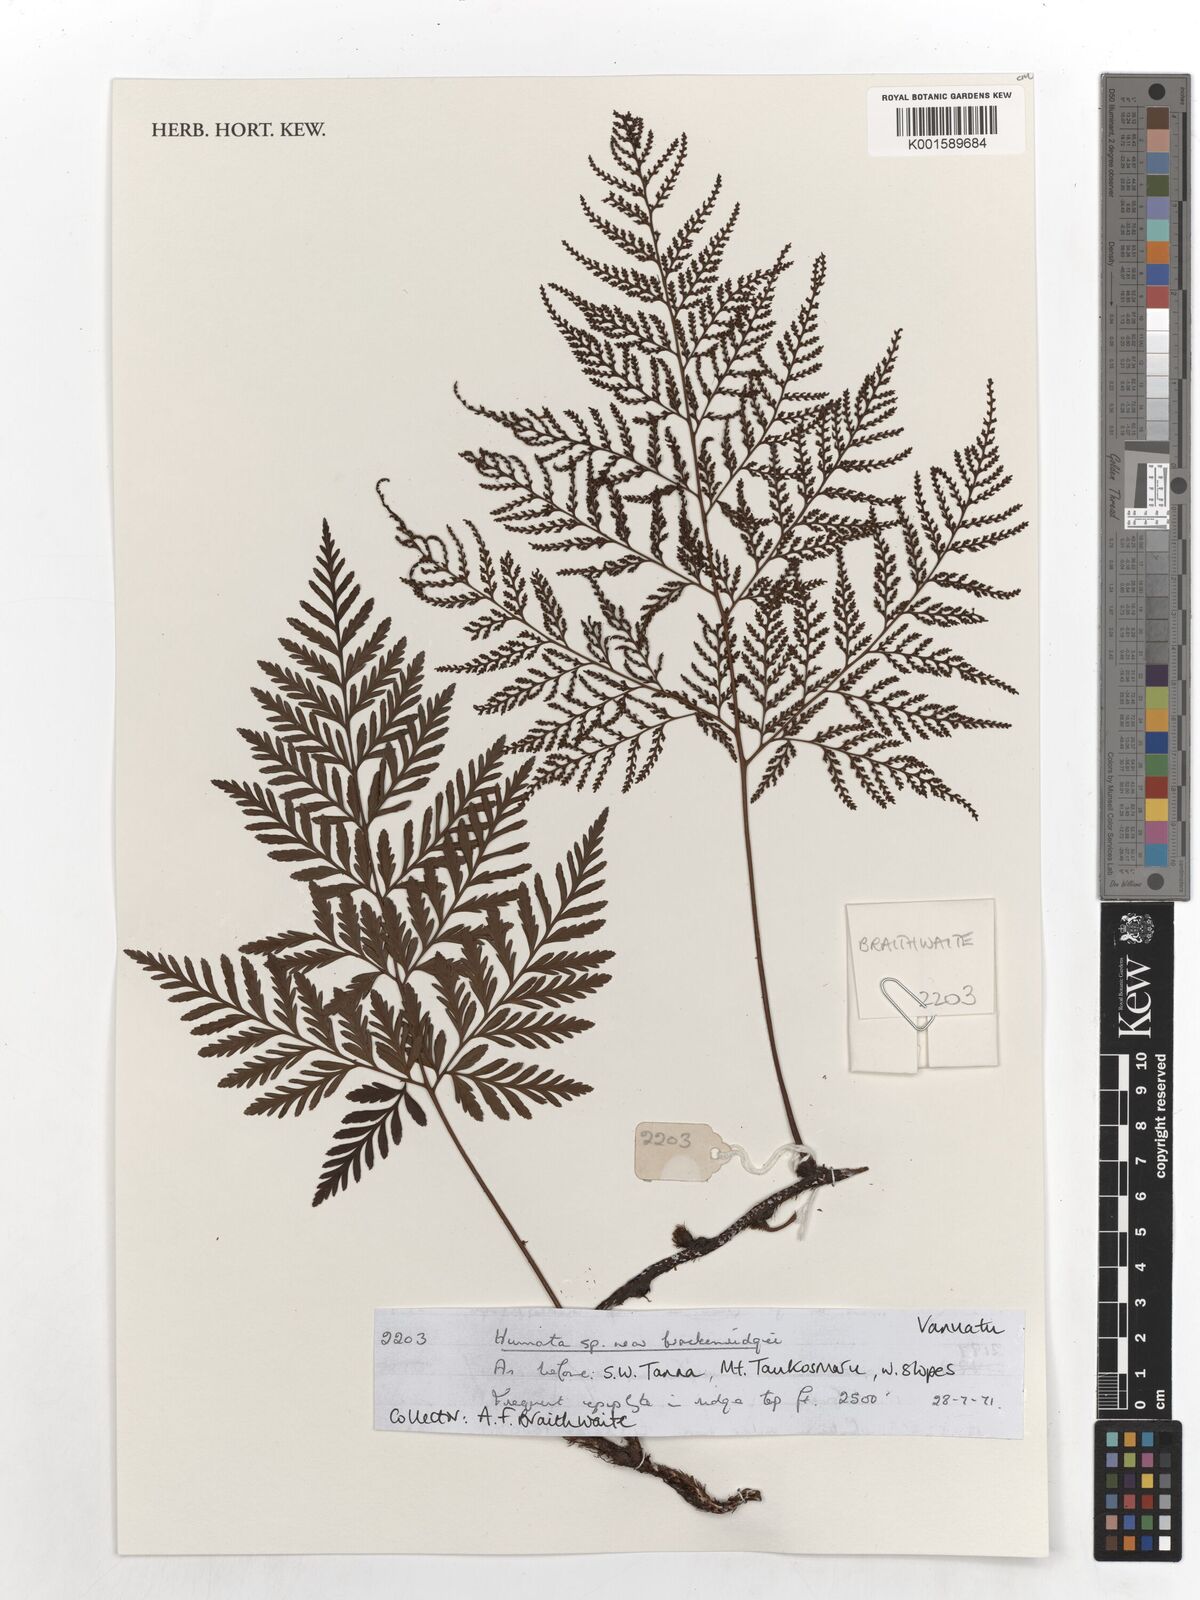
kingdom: Plantae
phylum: Tracheophyta
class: Polypodiopsida
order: Polypodiales
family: Davalliaceae
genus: Davallia
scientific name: Davallia cumingii
